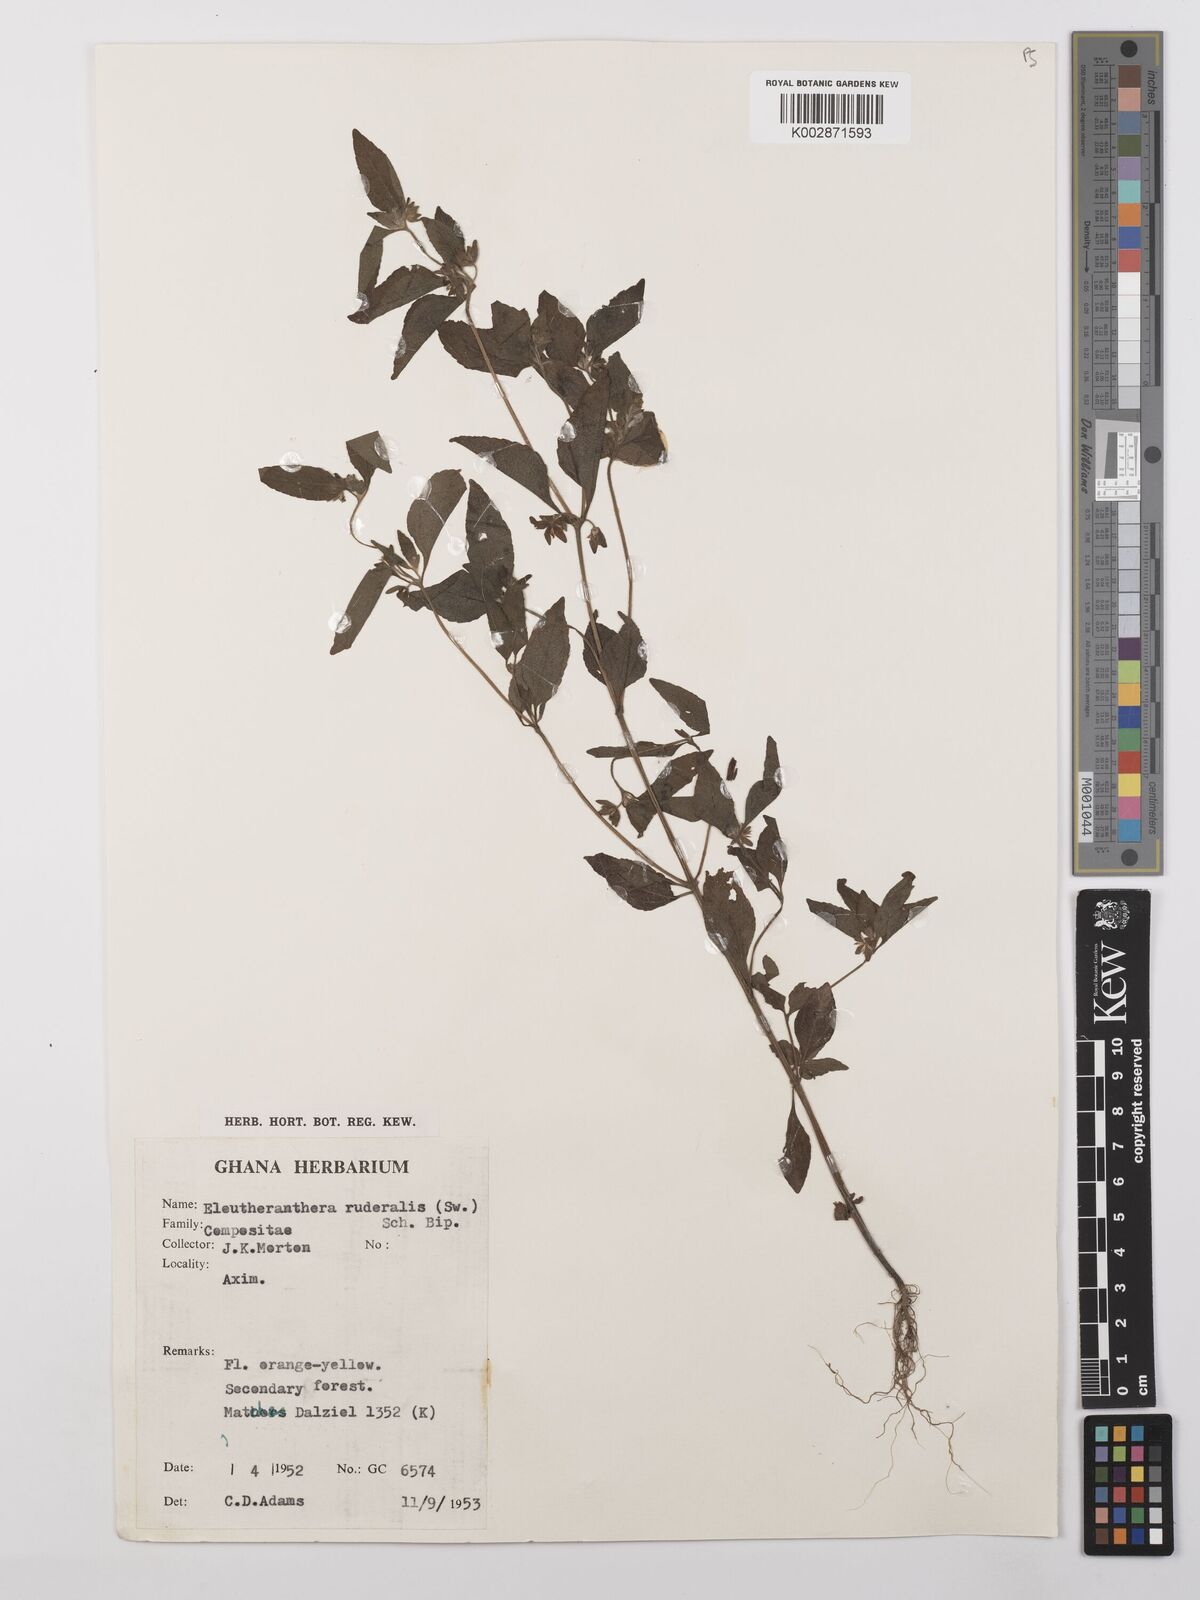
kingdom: Plantae
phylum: Tracheophyta
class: Magnoliopsida
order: Asterales
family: Asteraceae
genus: Eleutheranthera
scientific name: Eleutheranthera ruderalis
